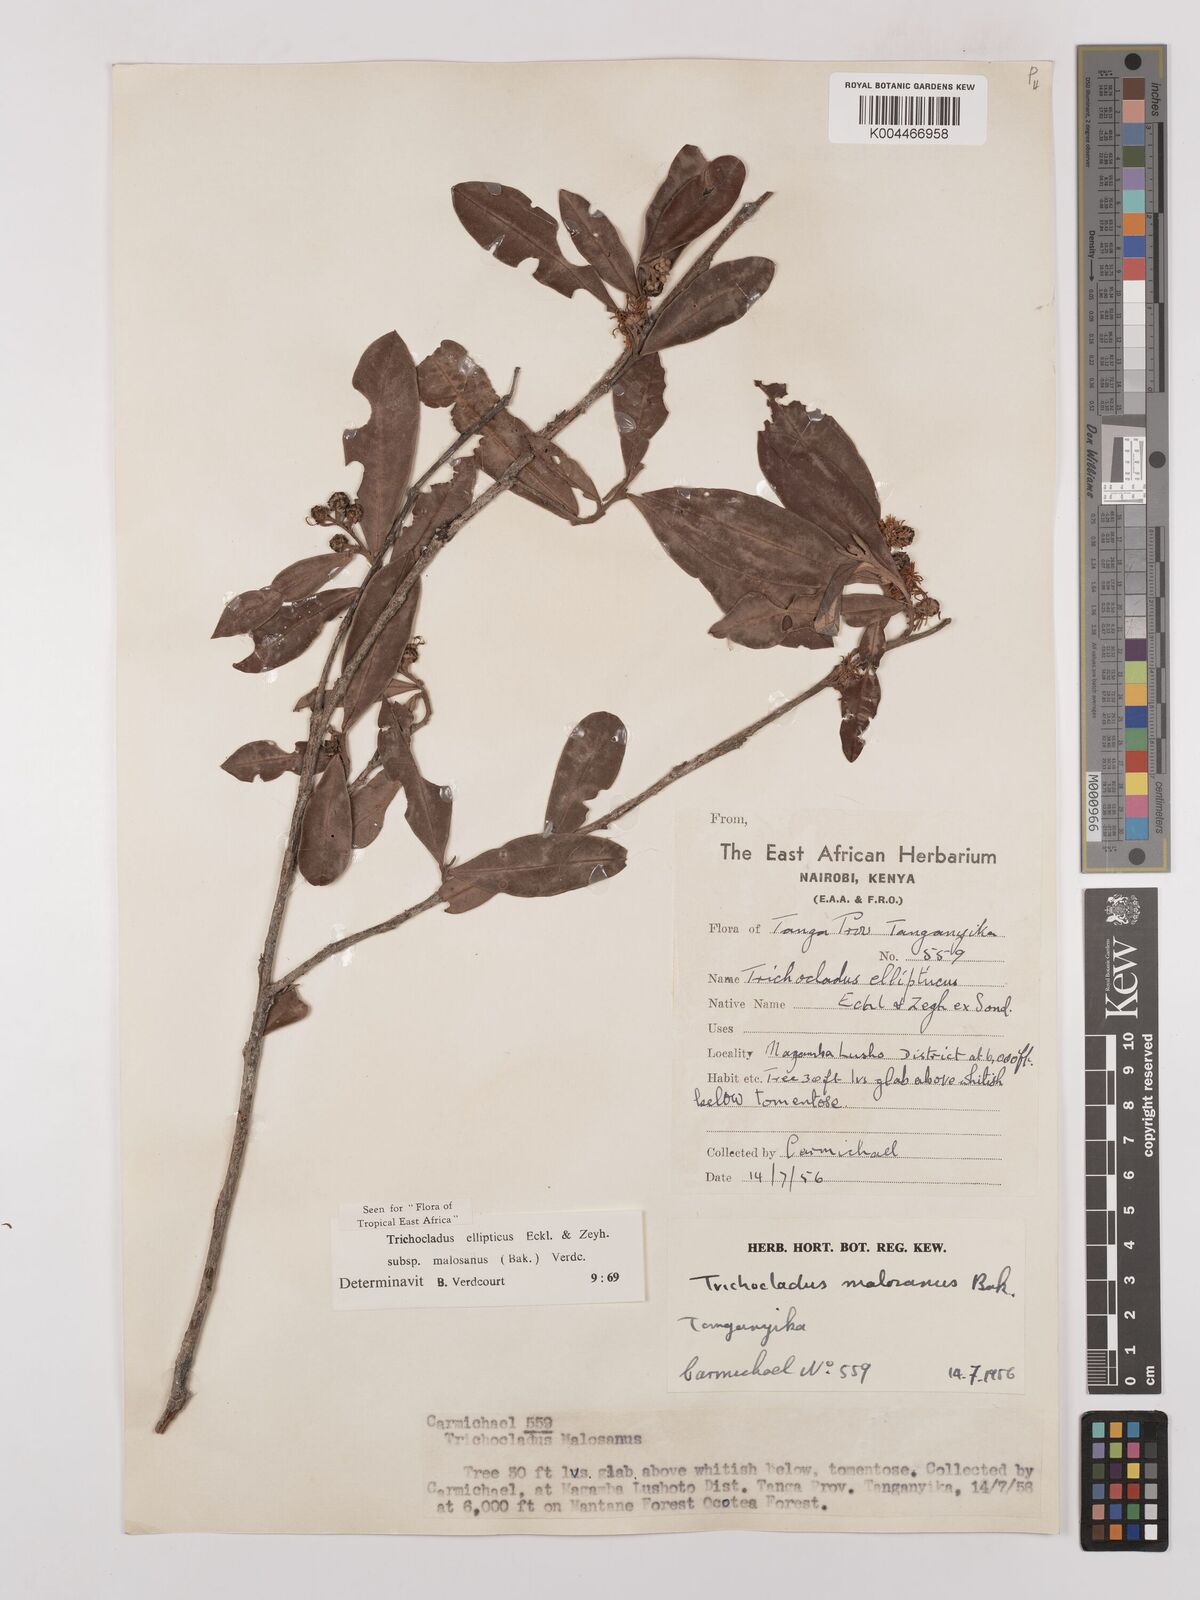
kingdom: Plantae
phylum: Tracheophyta
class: Magnoliopsida
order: Saxifragales
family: Hamamelidaceae
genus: Trichocladus
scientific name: Trichocladus ellipticus
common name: White witch-hazel
